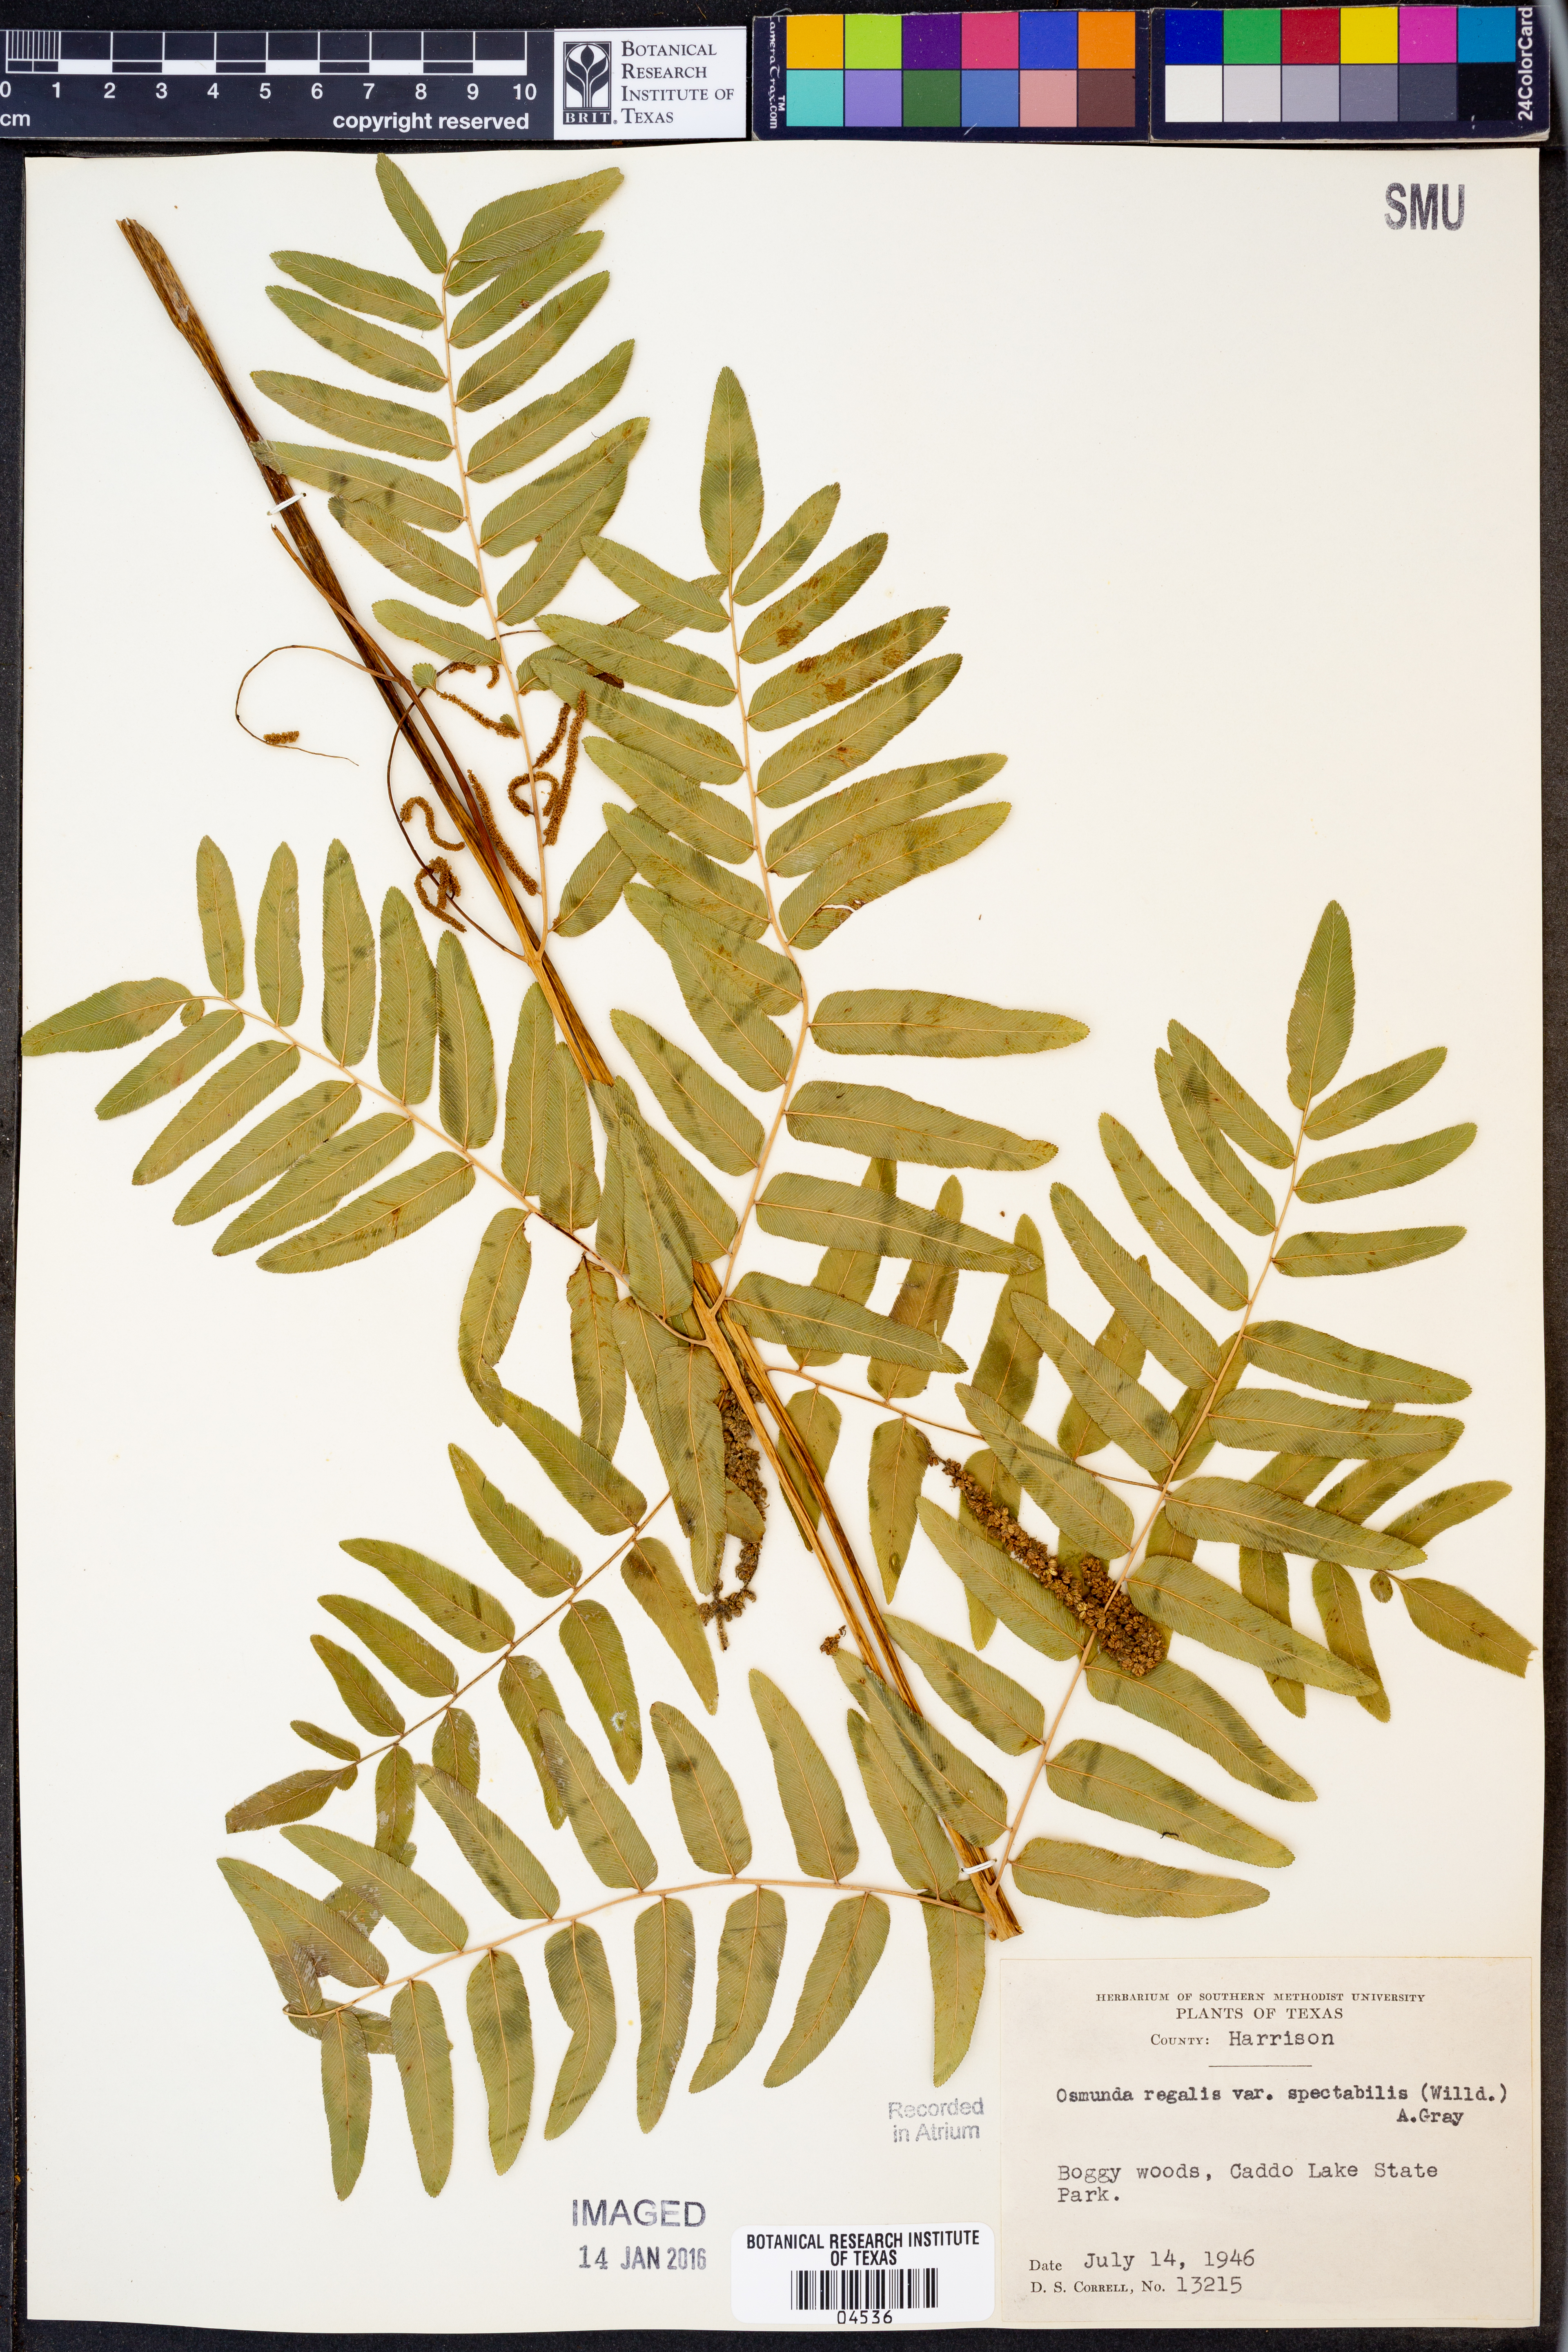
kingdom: Plantae
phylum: Tracheophyta
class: Polypodiopsida
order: Osmundales
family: Osmundaceae
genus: Osmunda
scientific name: Osmunda spectabilis
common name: American royal fern
